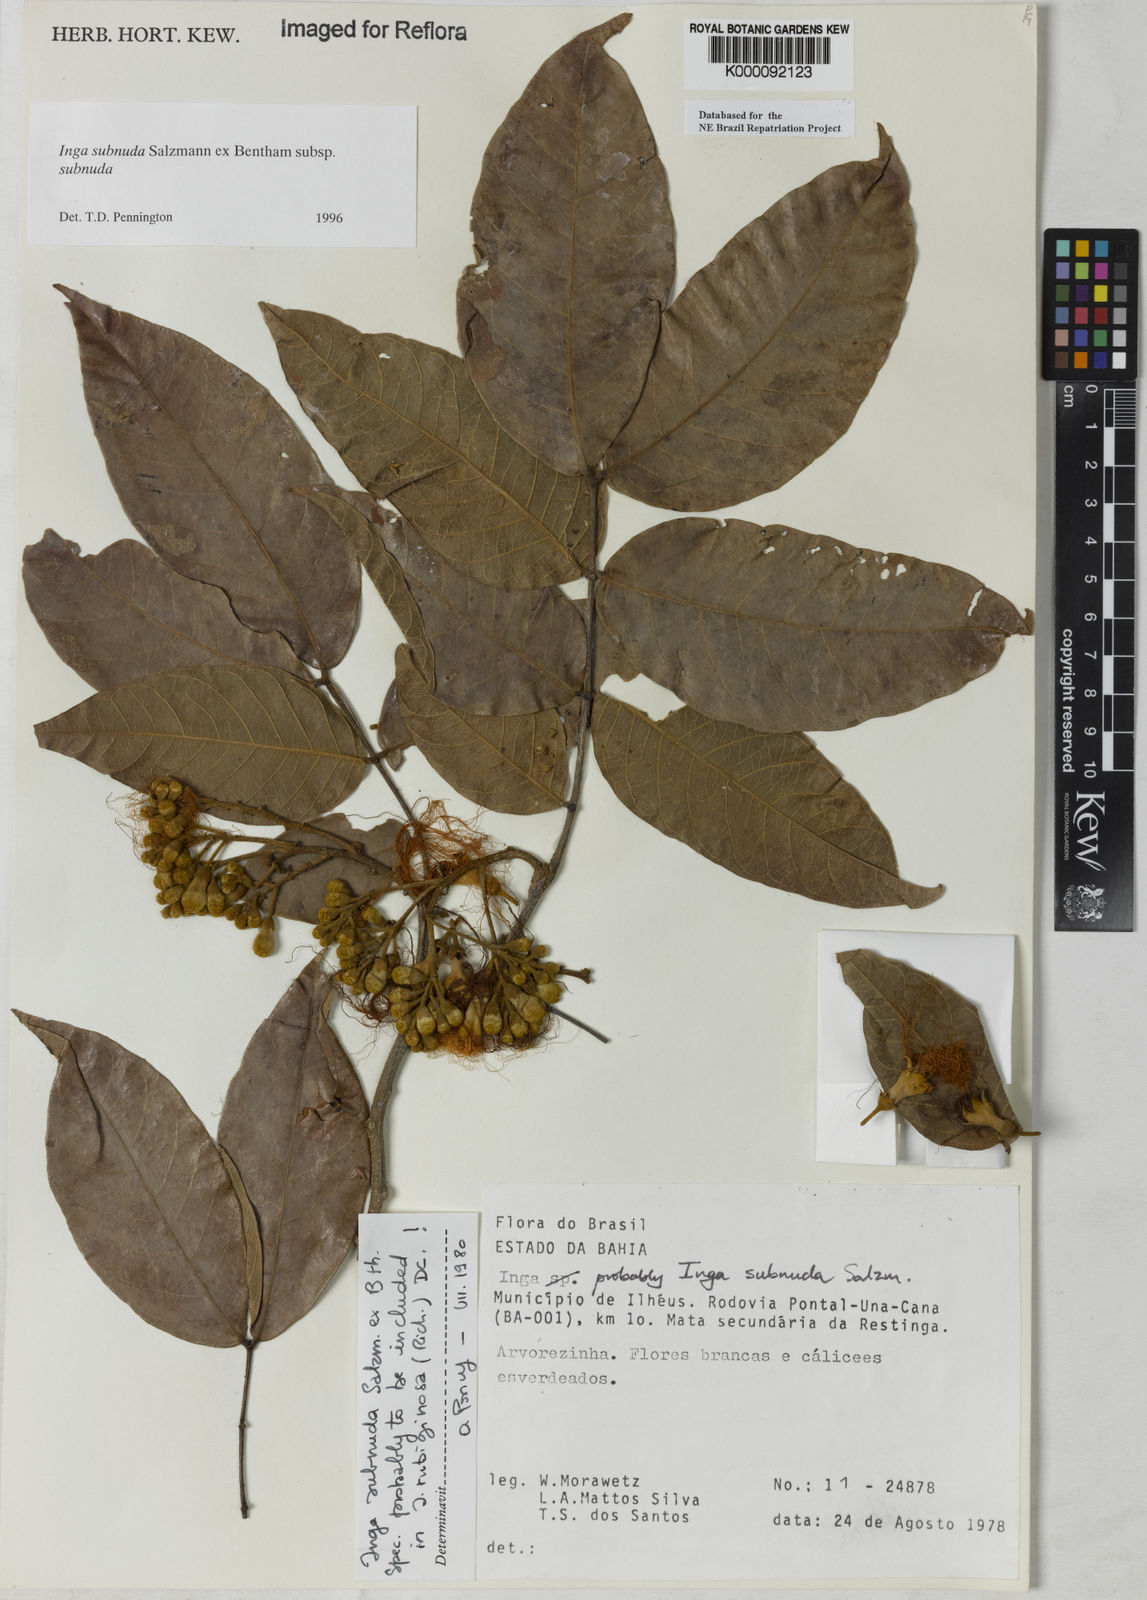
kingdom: Plantae
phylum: Tracheophyta
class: Magnoliopsida
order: Fabales
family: Fabaceae
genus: Inga
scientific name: Inga subnuda
